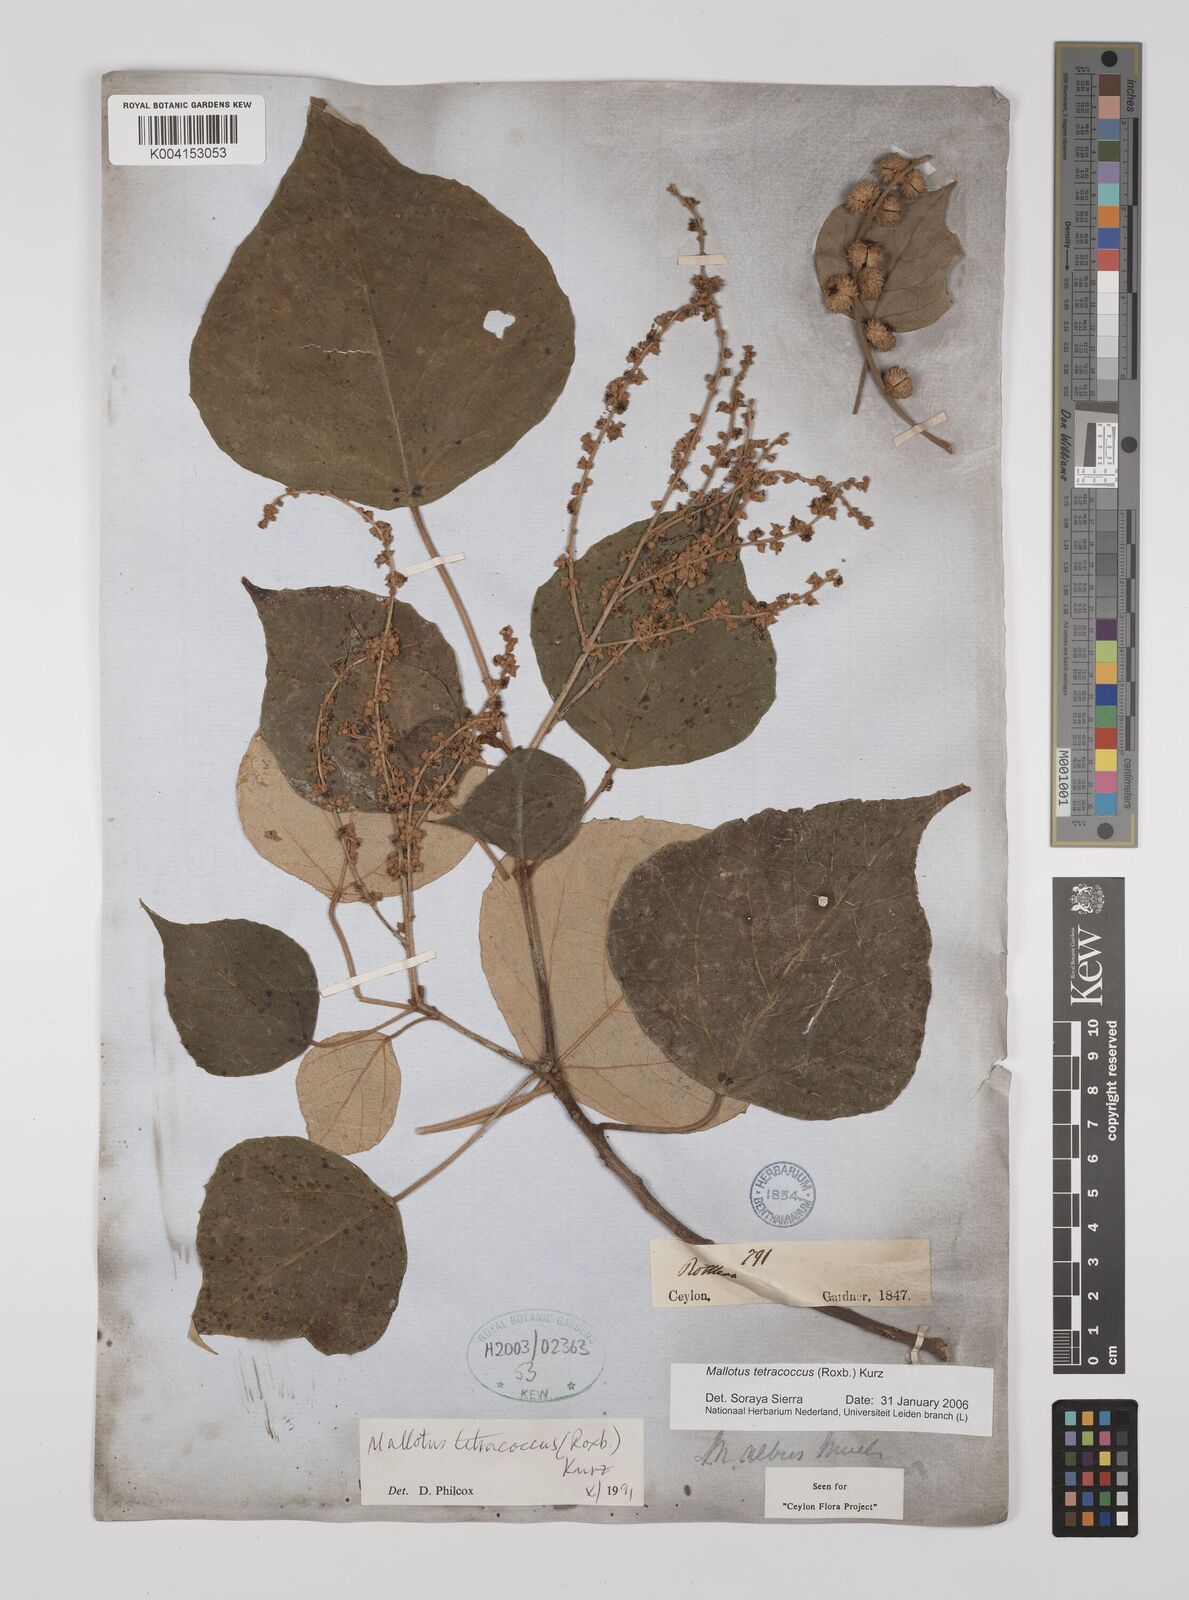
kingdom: Plantae
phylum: Tracheophyta
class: Magnoliopsida
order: Malpighiales
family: Euphorbiaceae
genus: Mallotus
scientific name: Mallotus tetracoccus
